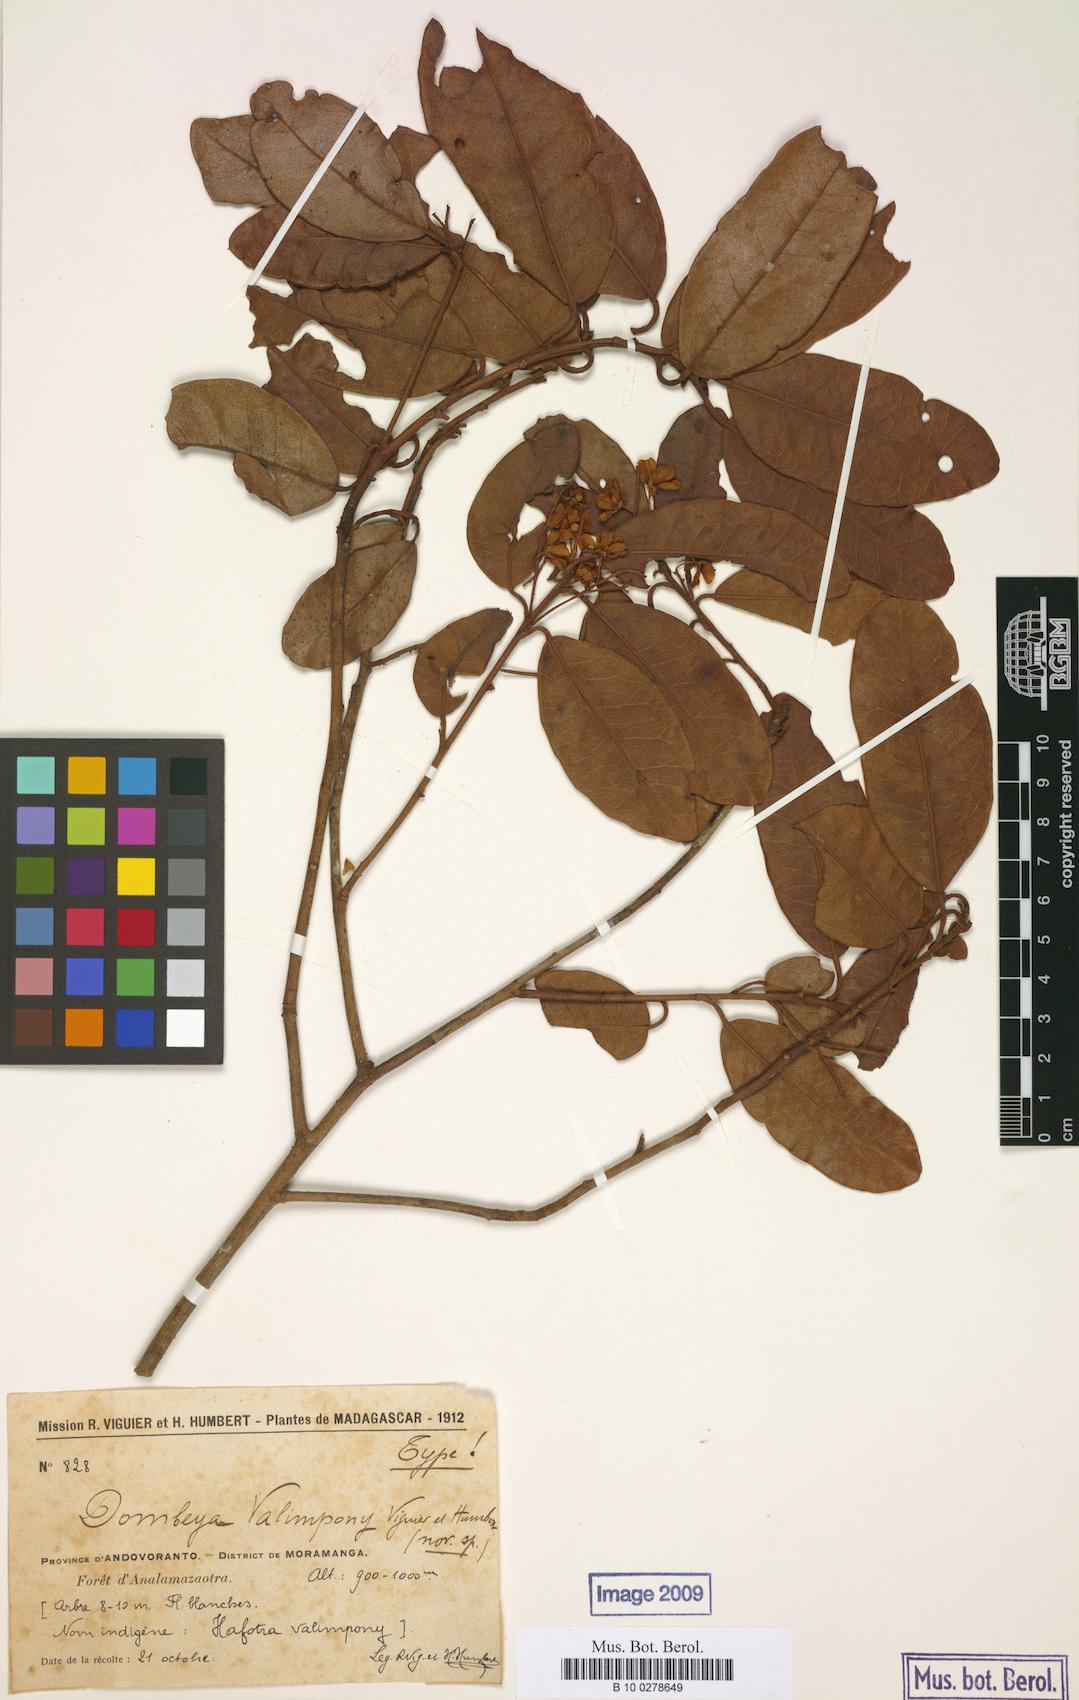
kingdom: Plantae
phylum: Tracheophyta
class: Magnoliopsida
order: Malvales
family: Malvaceae
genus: Dombeya
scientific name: Dombeya laurifolia
